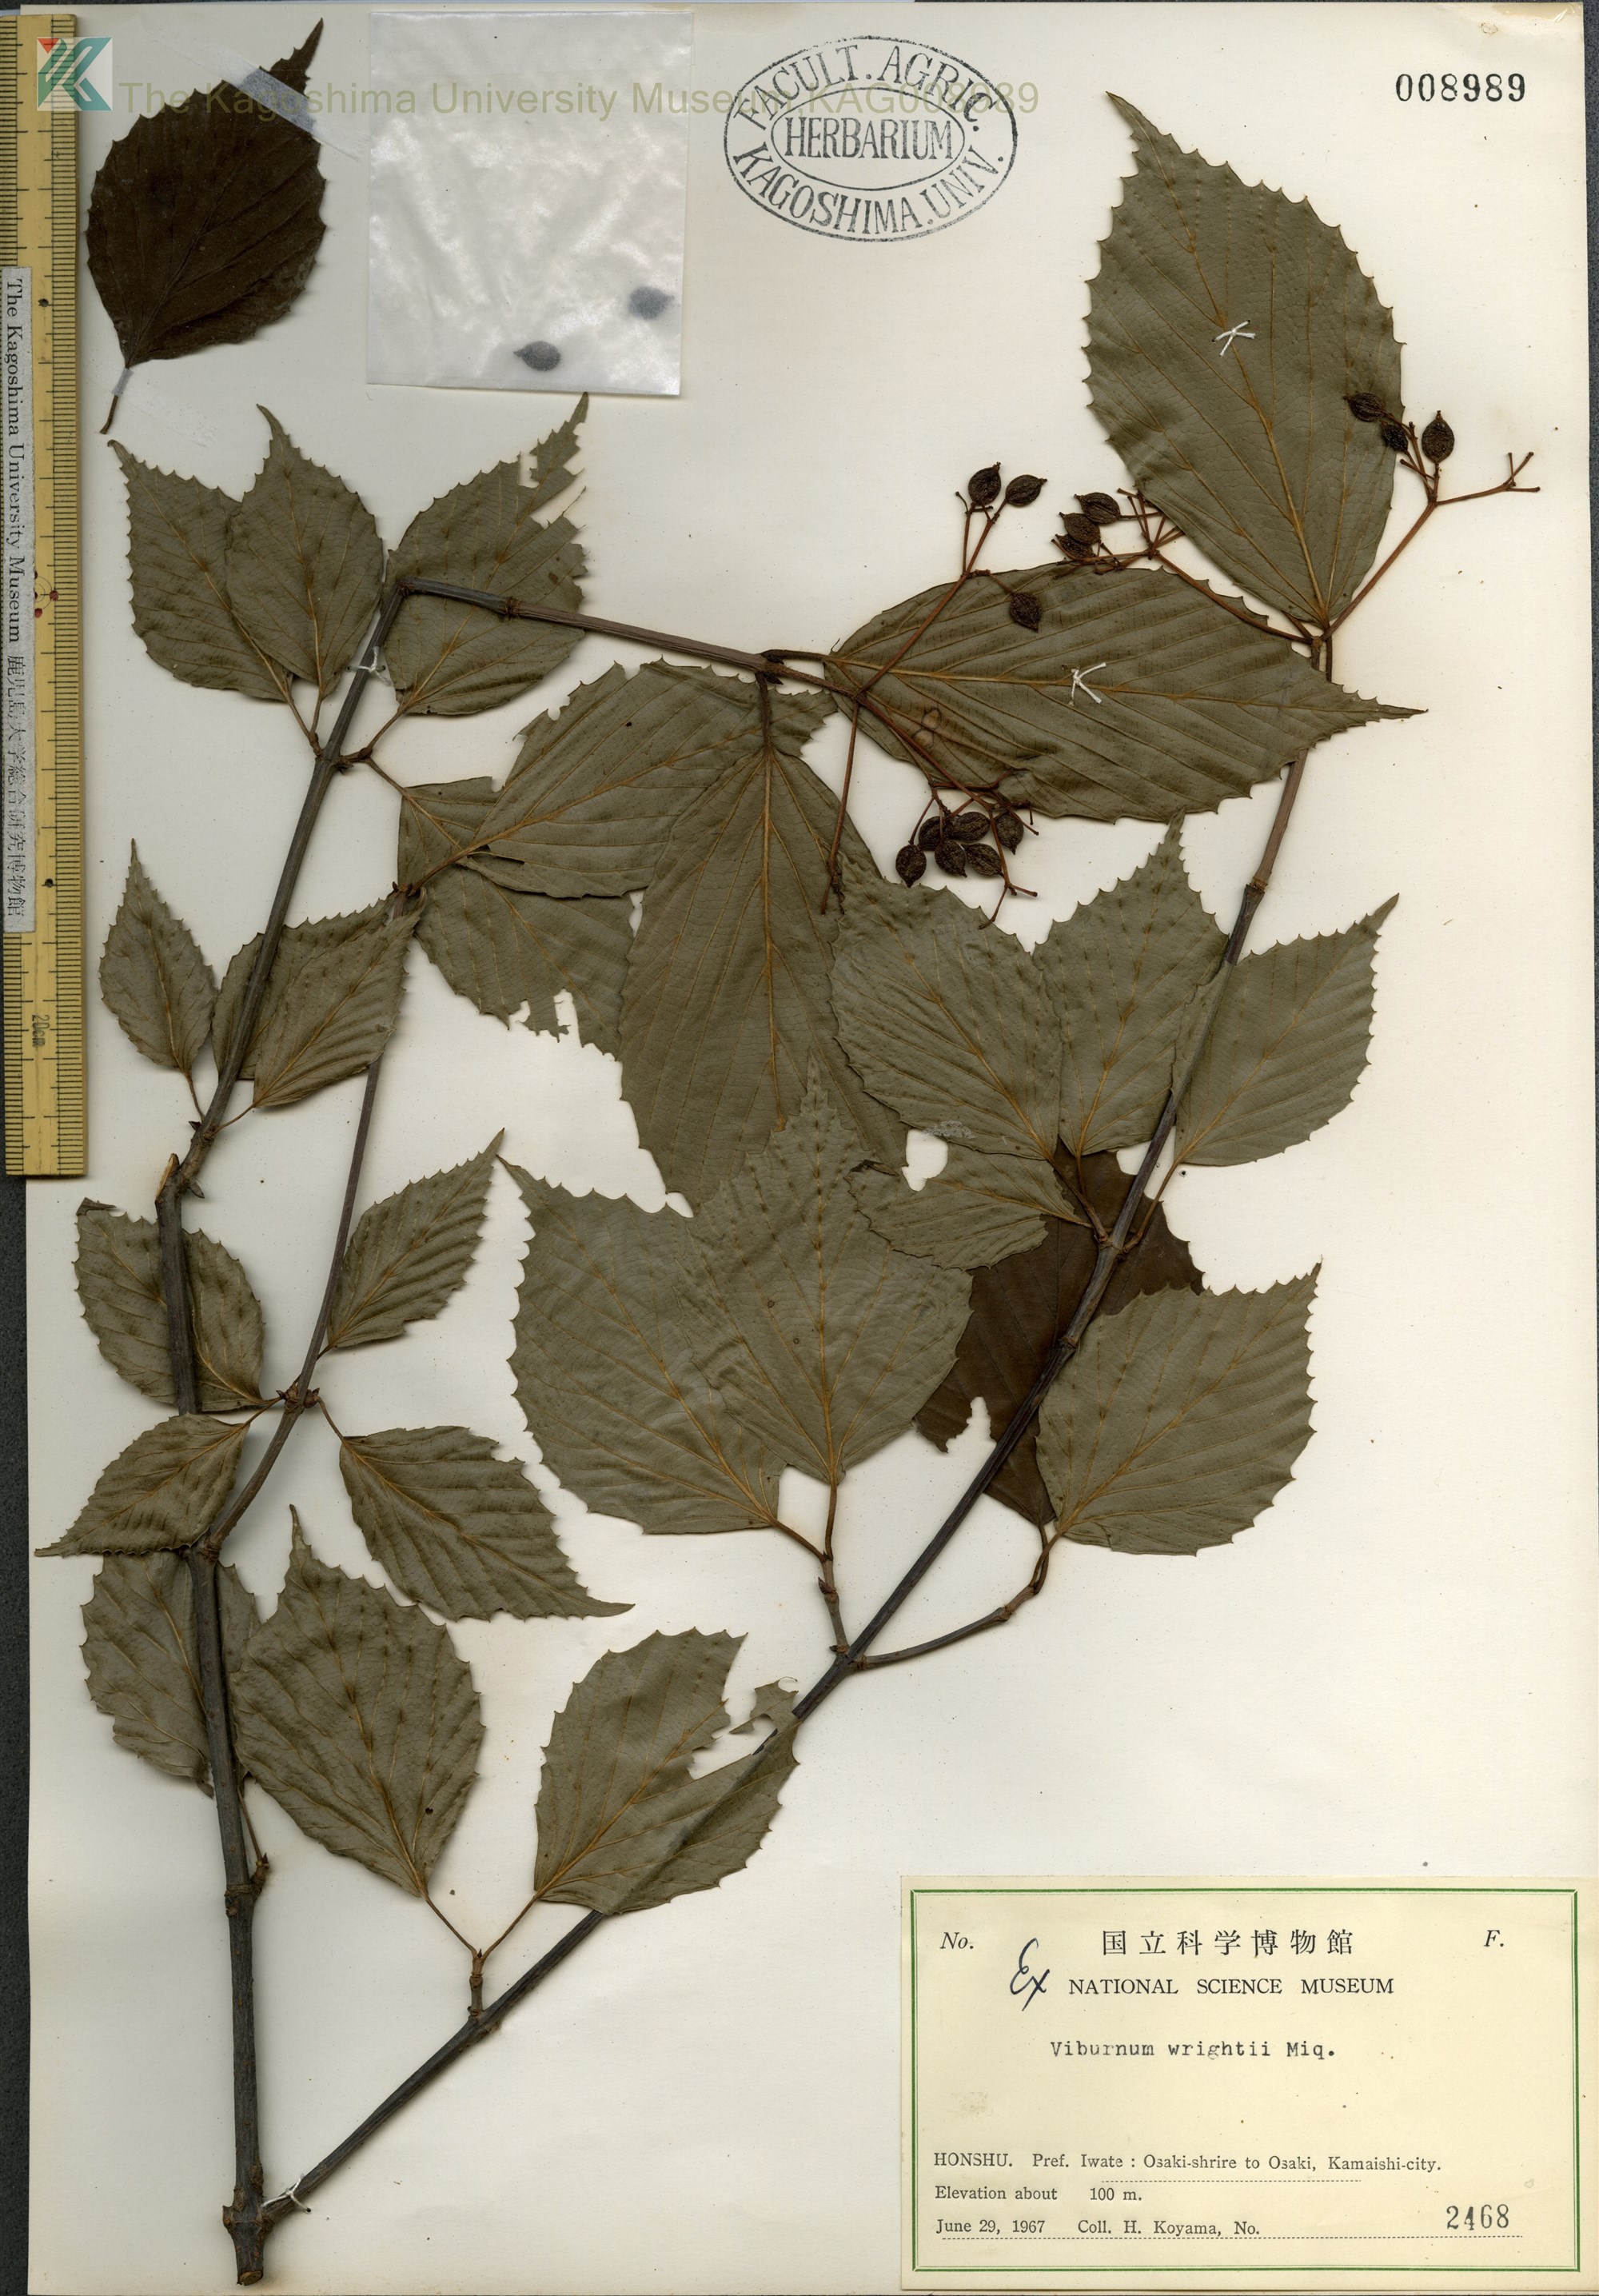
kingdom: Plantae
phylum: Tracheophyta
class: Magnoliopsida
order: Dipsacales
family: Viburnaceae
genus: Viburnum
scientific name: Viburnum wrightii
